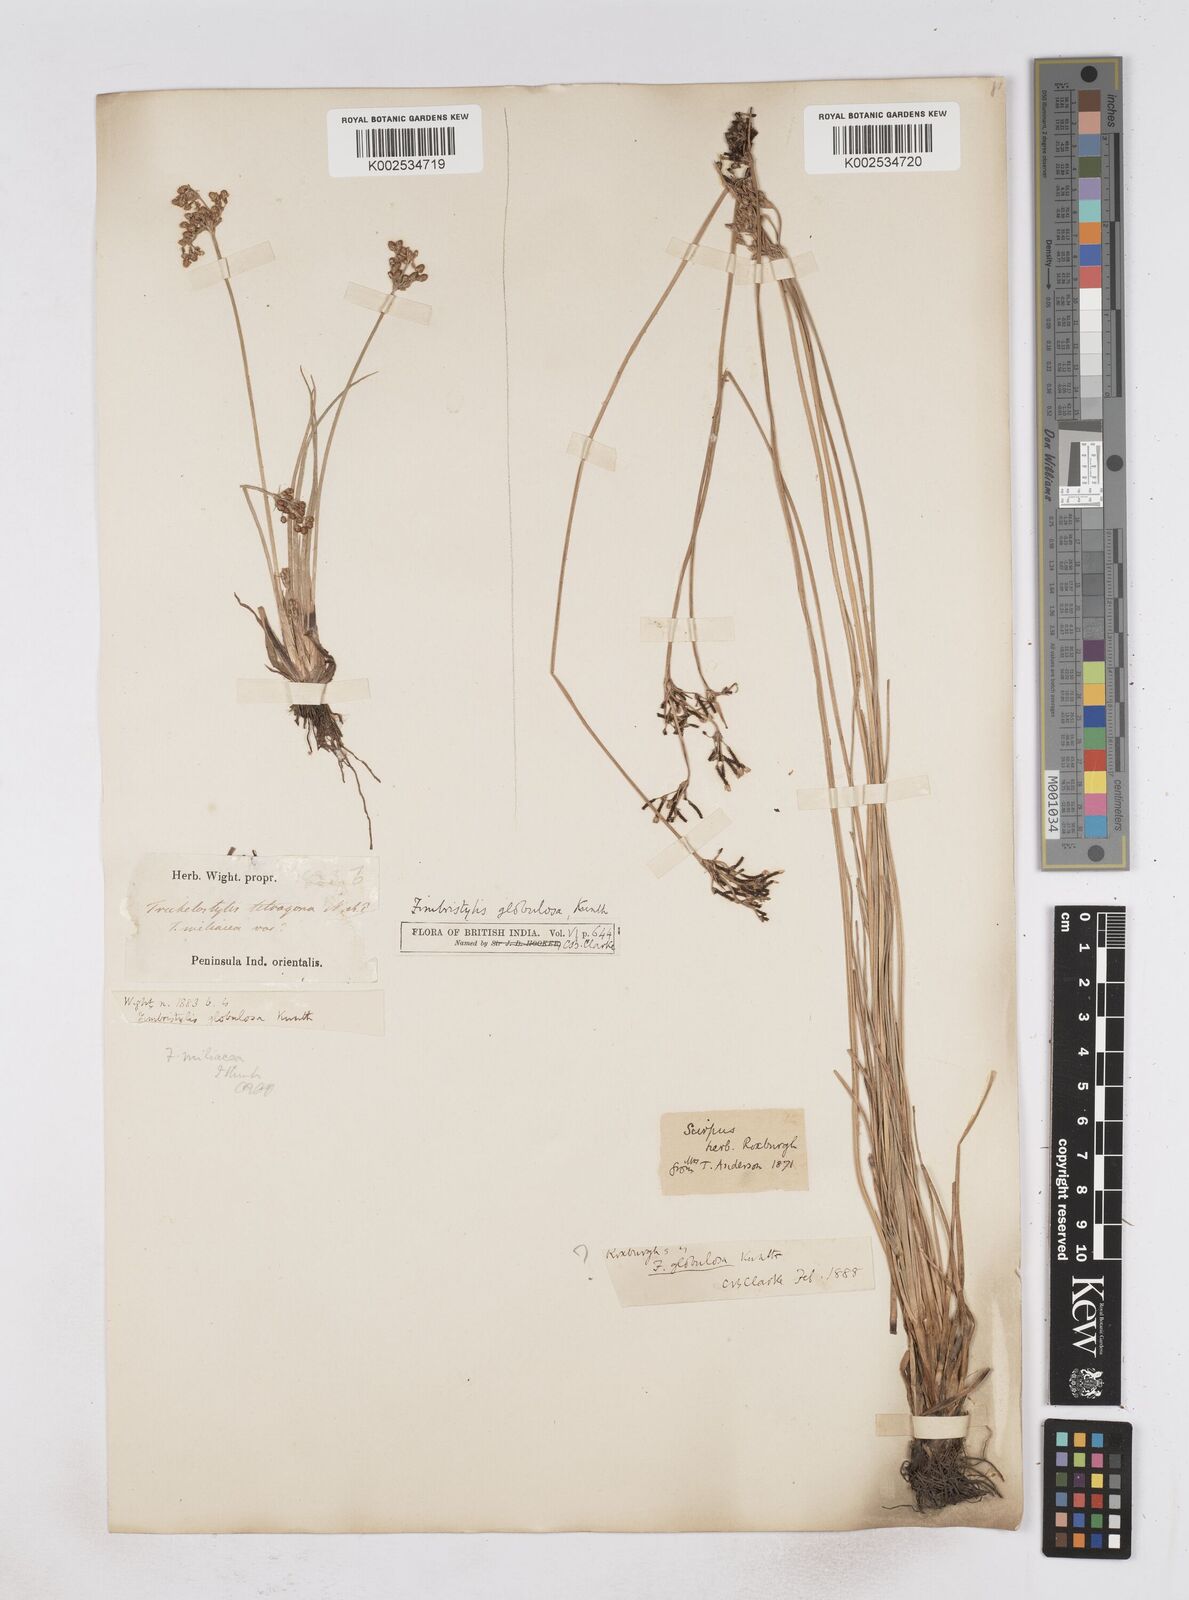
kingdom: Plantae
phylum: Tracheophyta
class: Liliopsida
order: Poales
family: Cyperaceae
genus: Fimbristylis
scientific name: Fimbristylis umbellaris
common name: Globular fimbristylis
